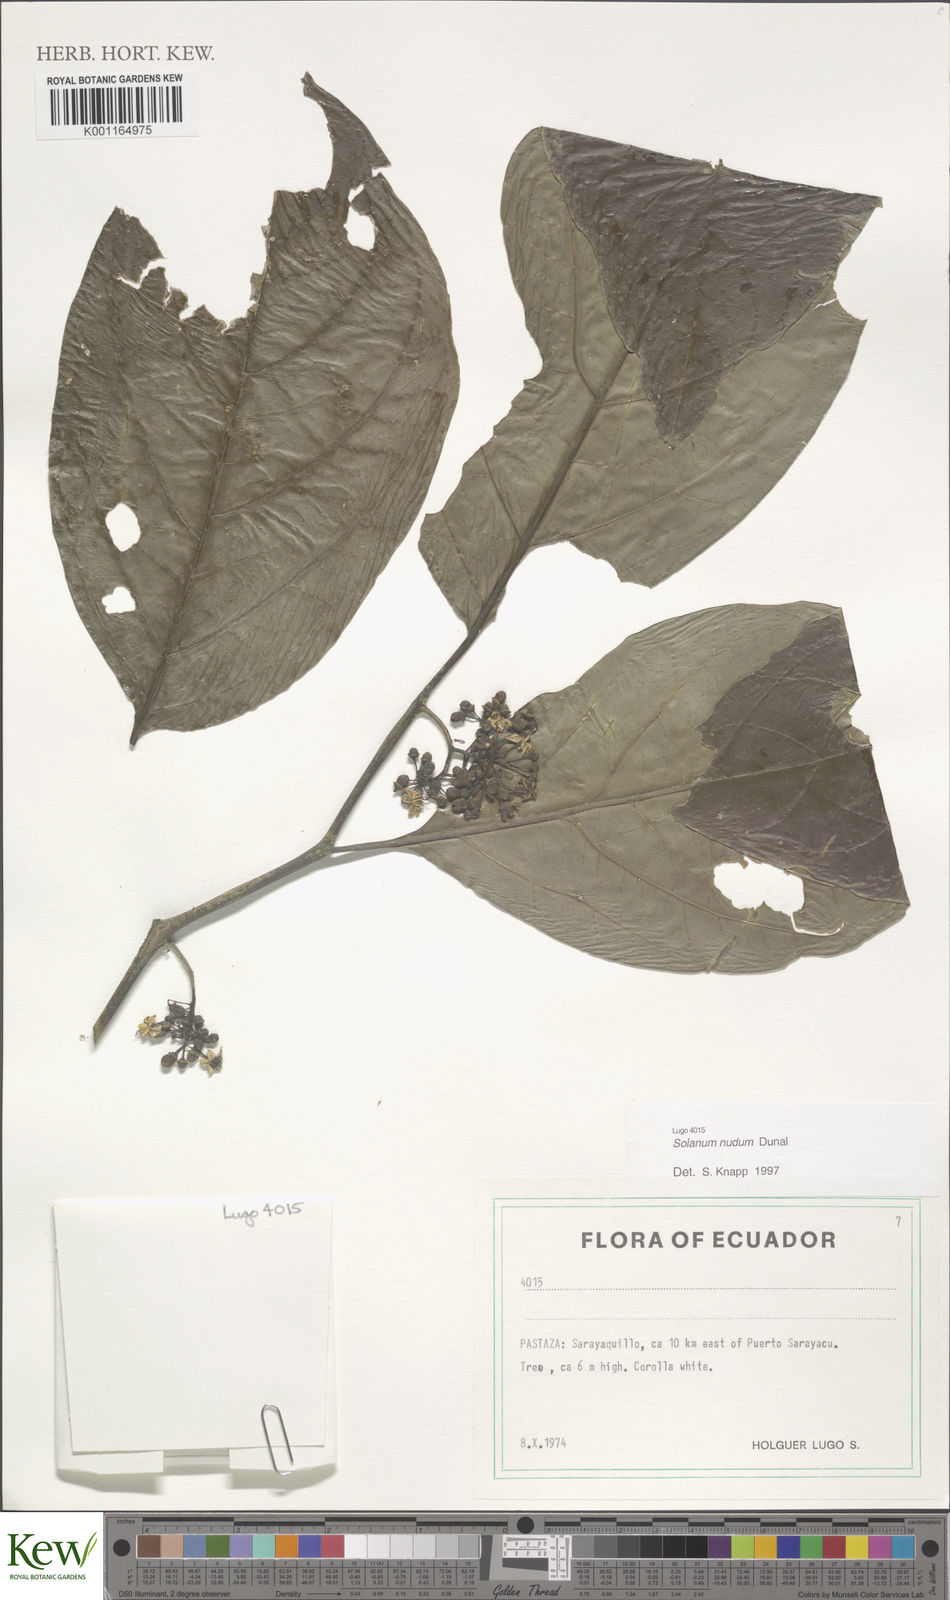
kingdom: Plantae
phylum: Tracheophyta
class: Magnoliopsida
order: Solanales
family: Solanaceae
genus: Solanum
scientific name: Solanum nudum
